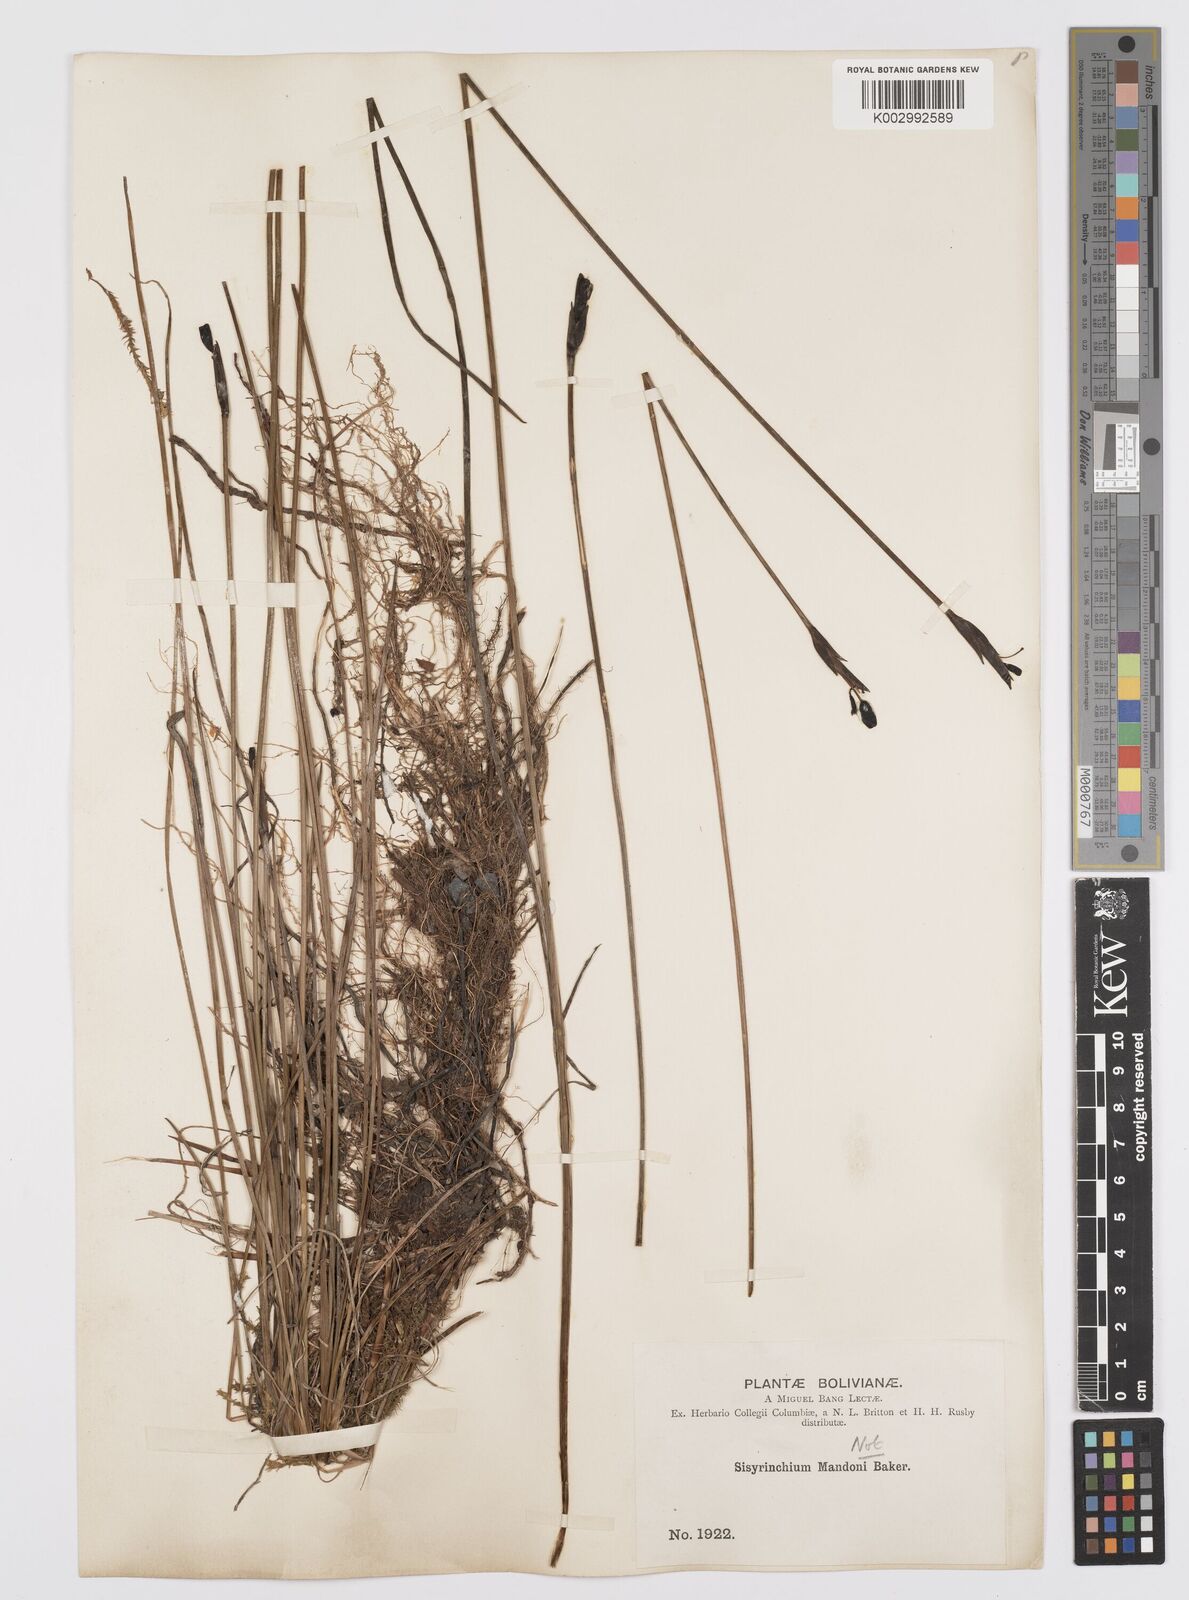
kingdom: Plantae
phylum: Tracheophyta
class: Liliopsida
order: Asparagales
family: Iridaceae
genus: Sisyrinchium
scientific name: Sisyrinchium rigidifolium
